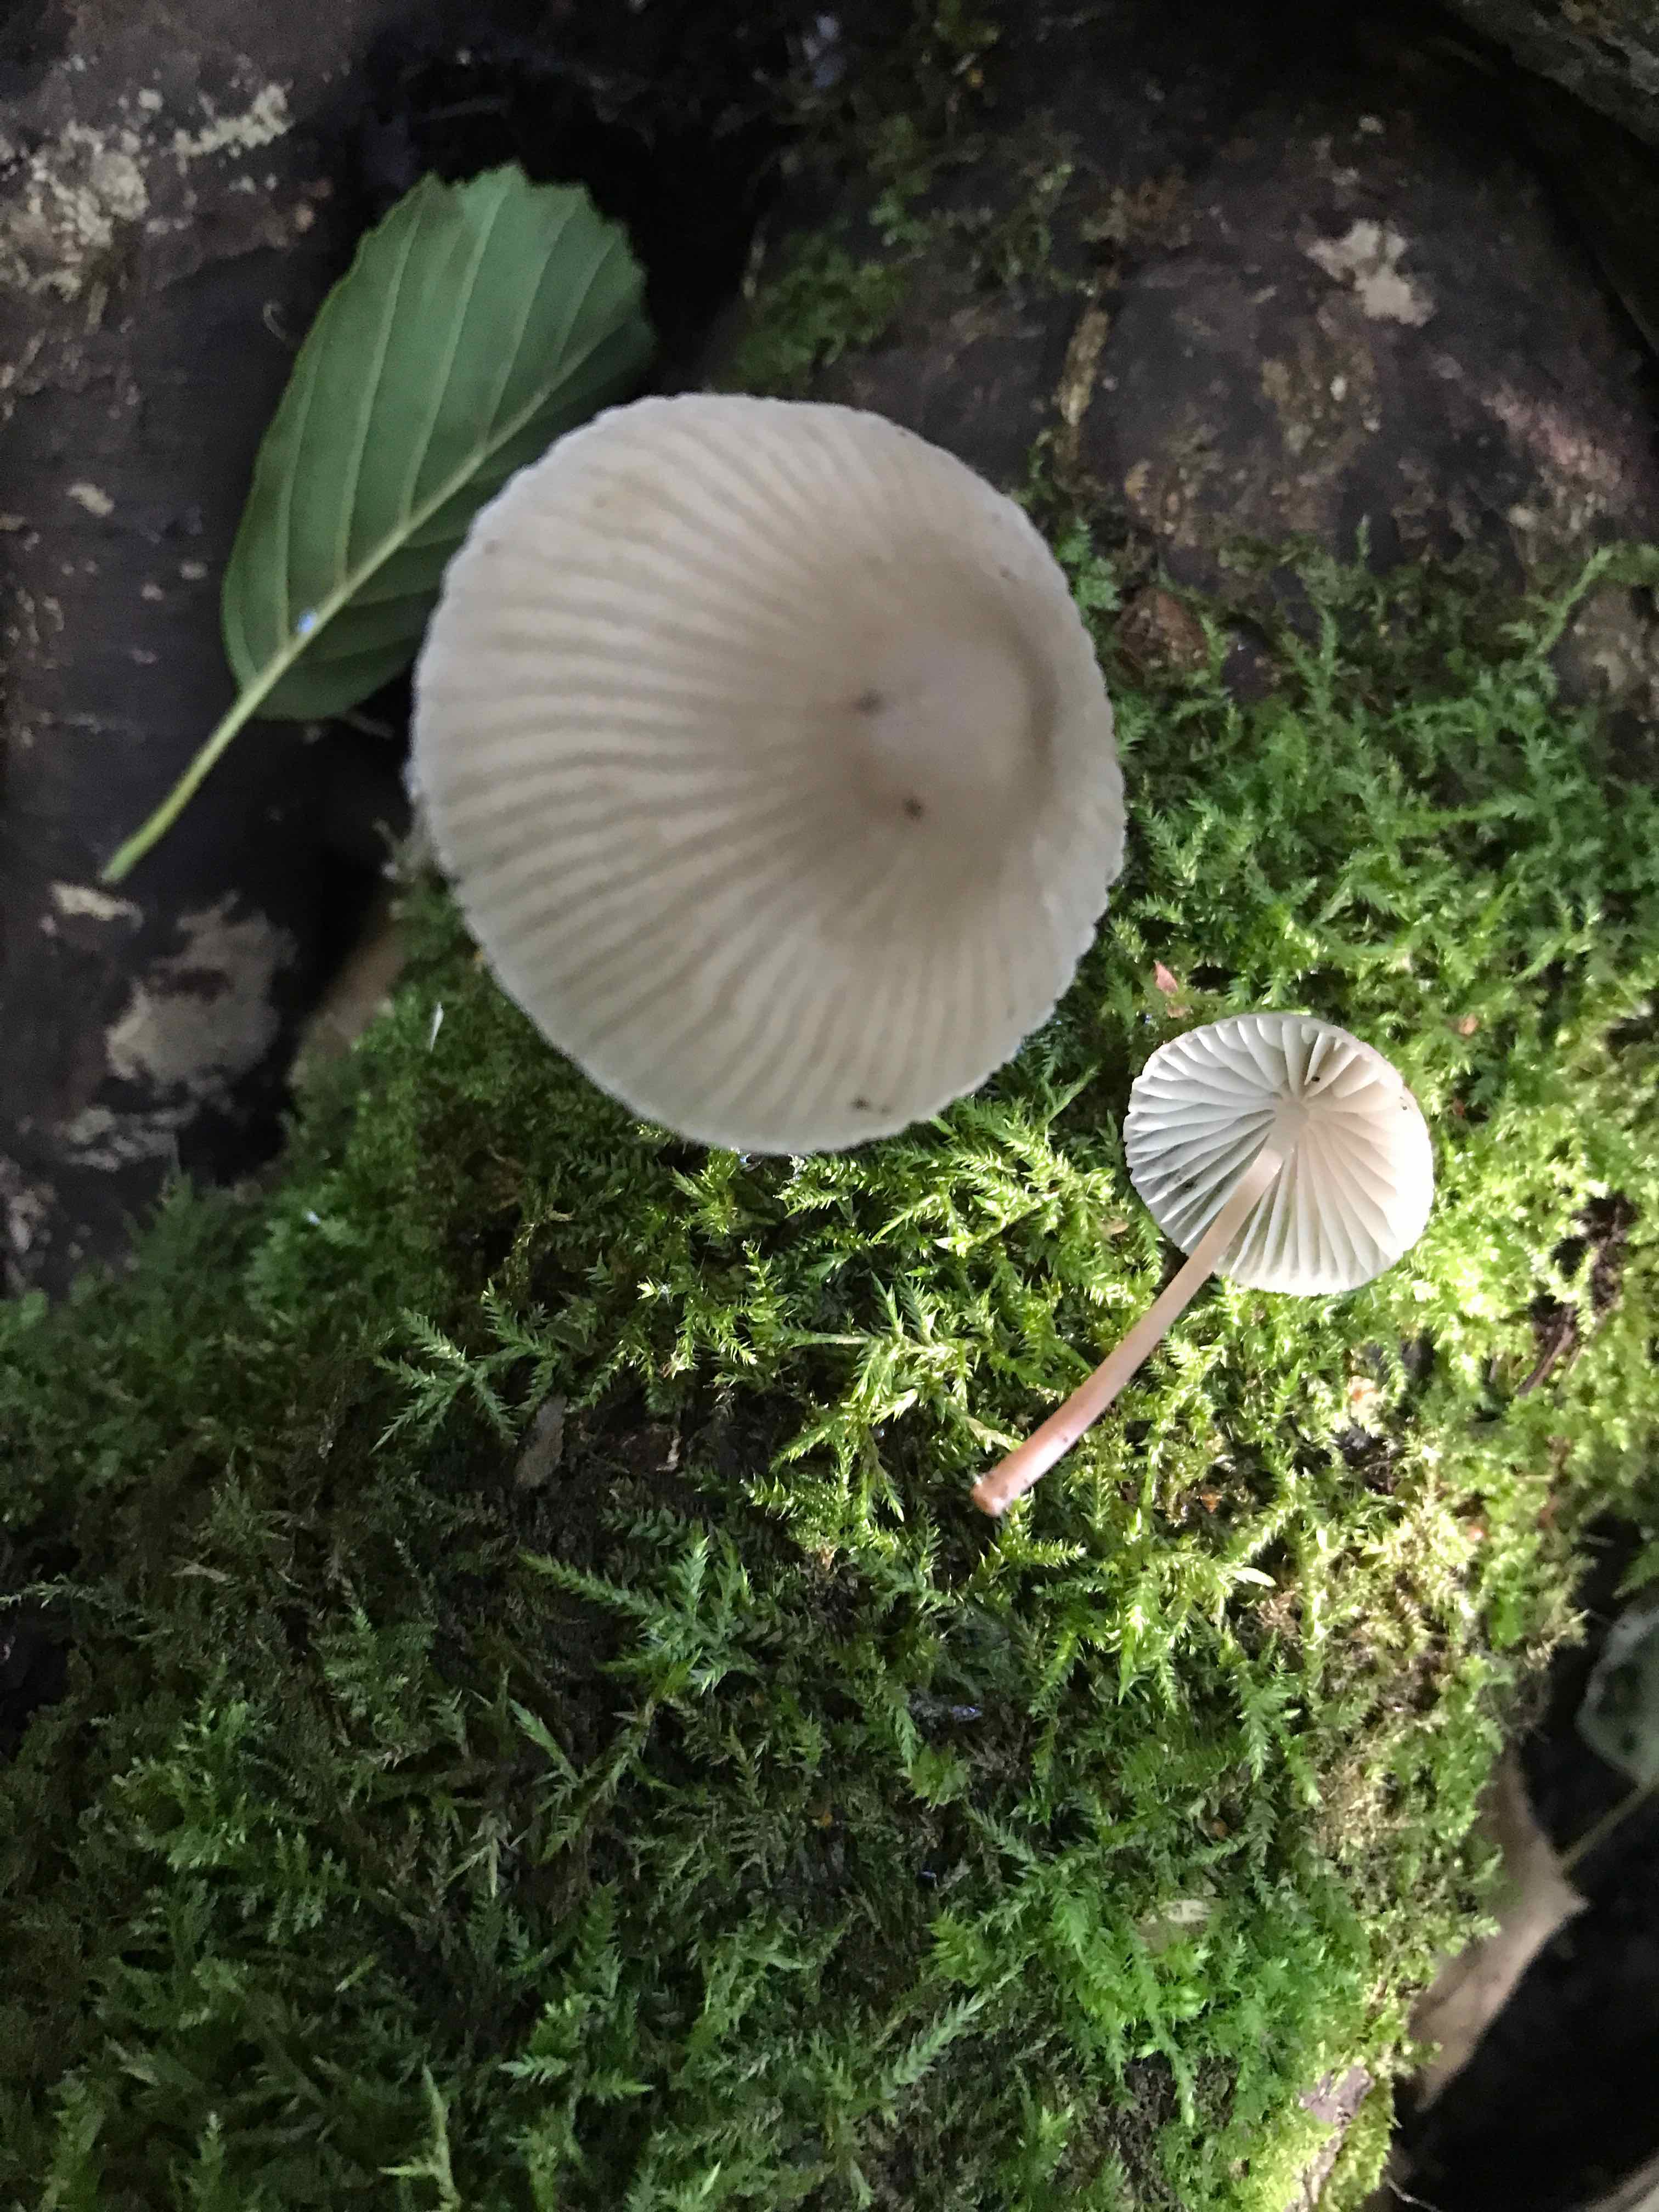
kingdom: Fungi
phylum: Basidiomycota
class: Agaricomycetes
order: Agaricales
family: Mycenaceae
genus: Mycena
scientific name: Mycena abramsii
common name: sommer-huesvamp
